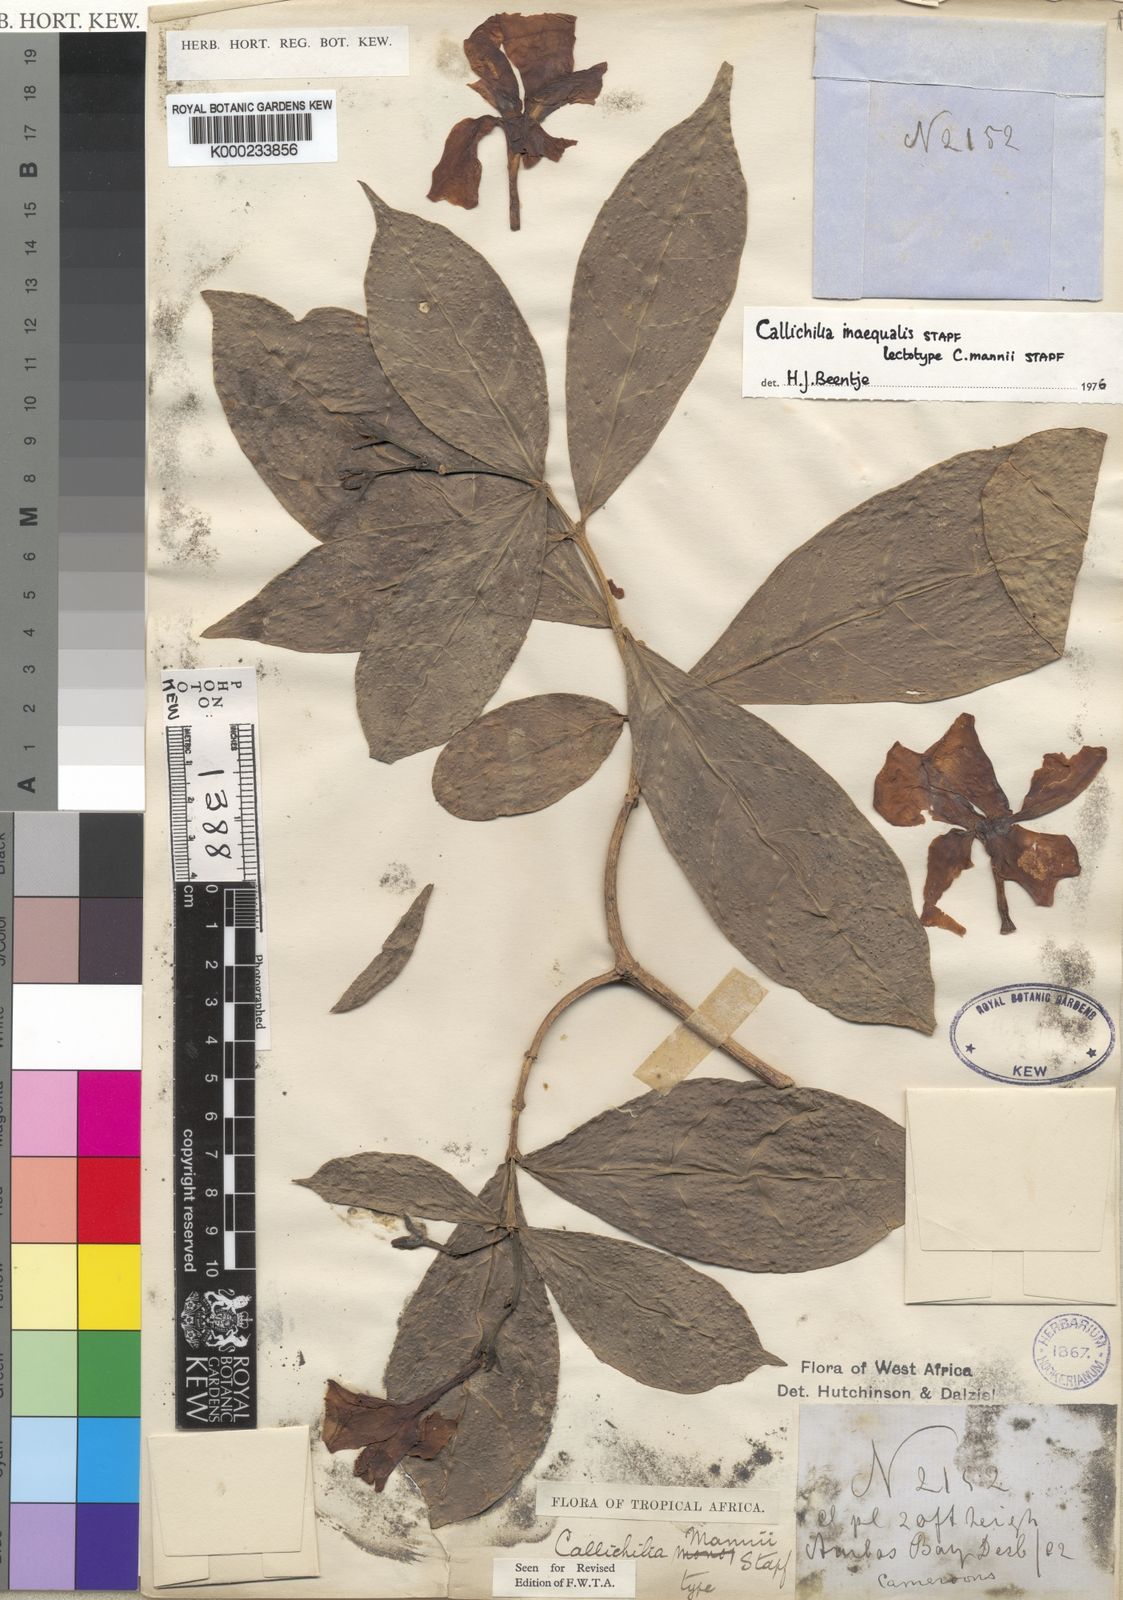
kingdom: Plantae
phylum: Tracheophyta
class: Magnoliopsida
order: Gentianales
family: Apocynaceae
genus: Callichilia
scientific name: Callichilia inaequalis
